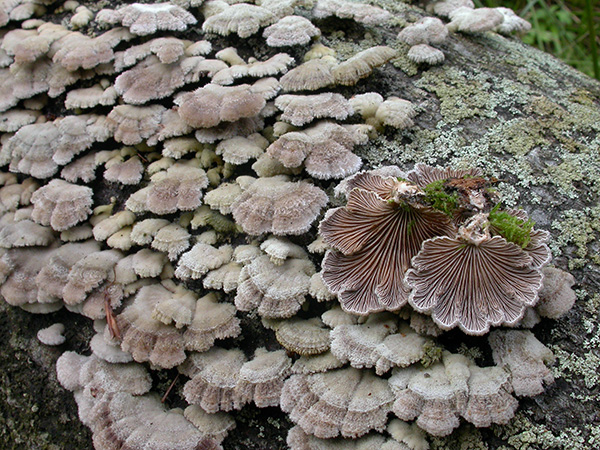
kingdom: Fungi
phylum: Basidiomycota
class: Agaricomycetes
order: Agaricales
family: Schizophyllaceae
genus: Schizophyllum
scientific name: Schizophyllum commune
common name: kløvblad
